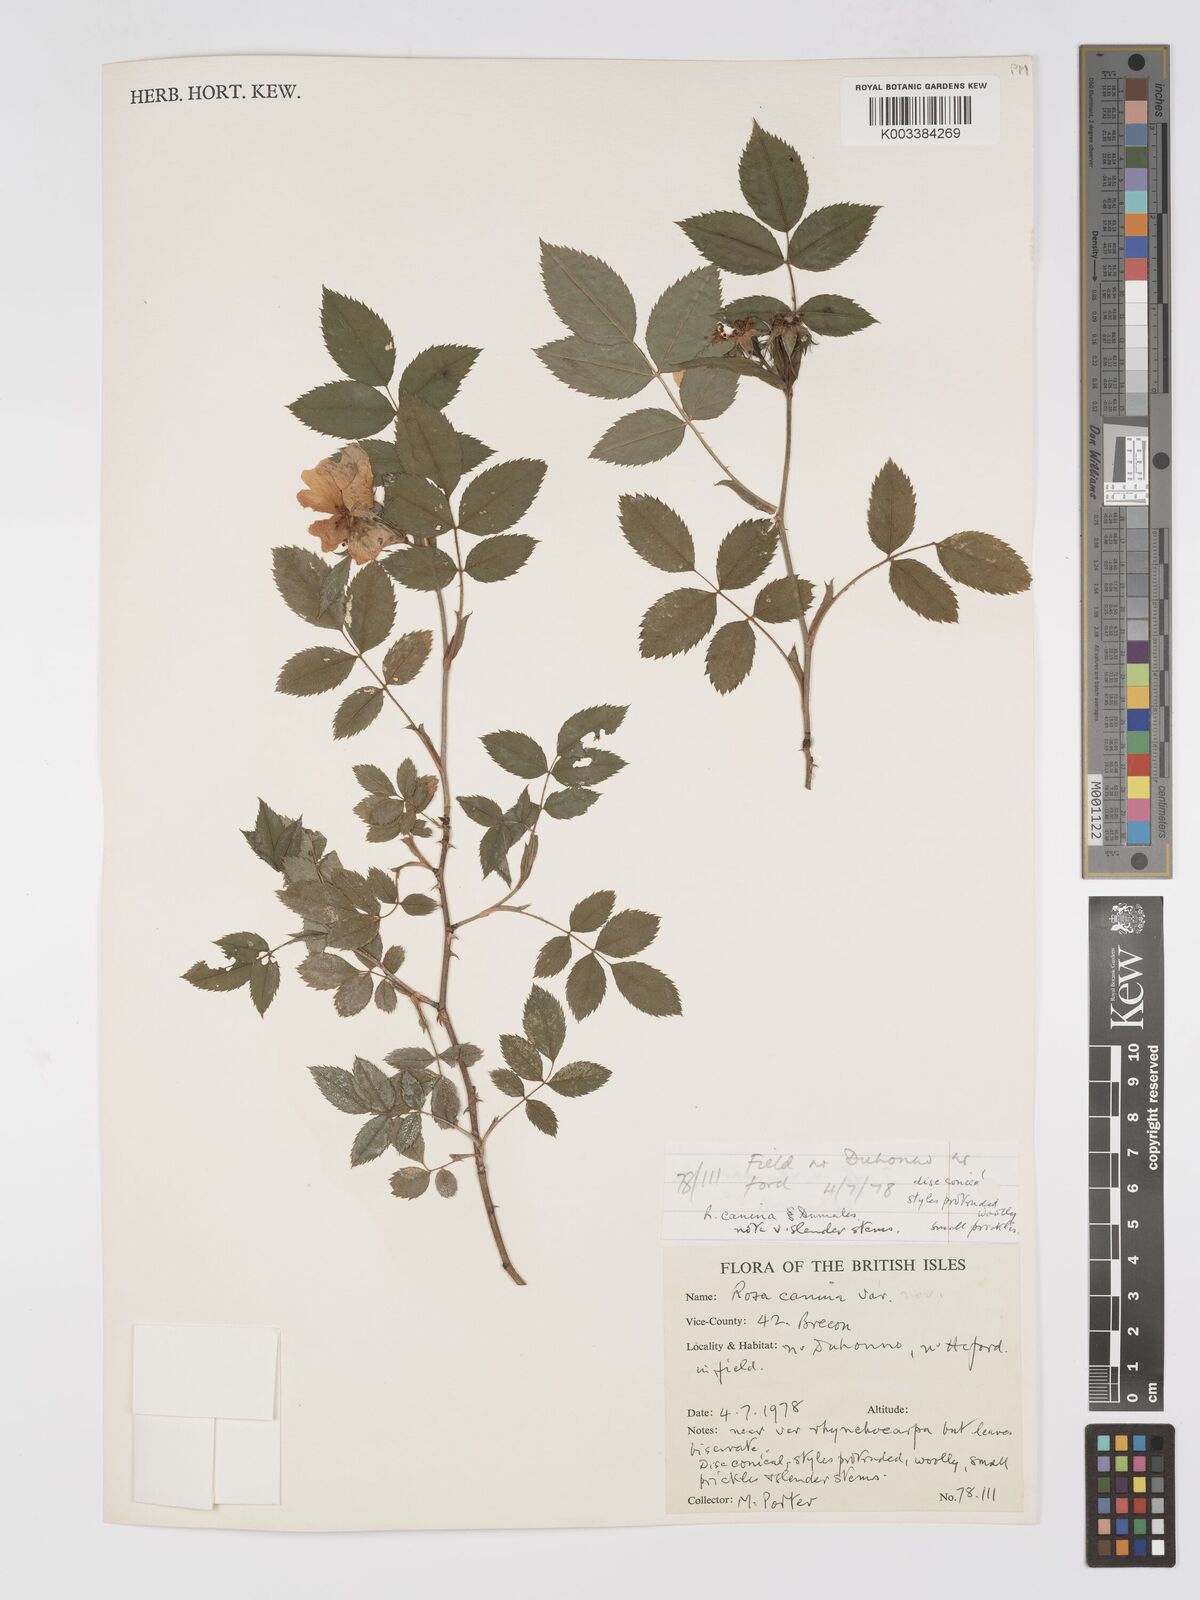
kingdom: Plantae
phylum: Tracheophyta
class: Magnoliopsida
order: Rosales
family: Rosaceae
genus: Rosa
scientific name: Rosa canina
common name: Dog rose
